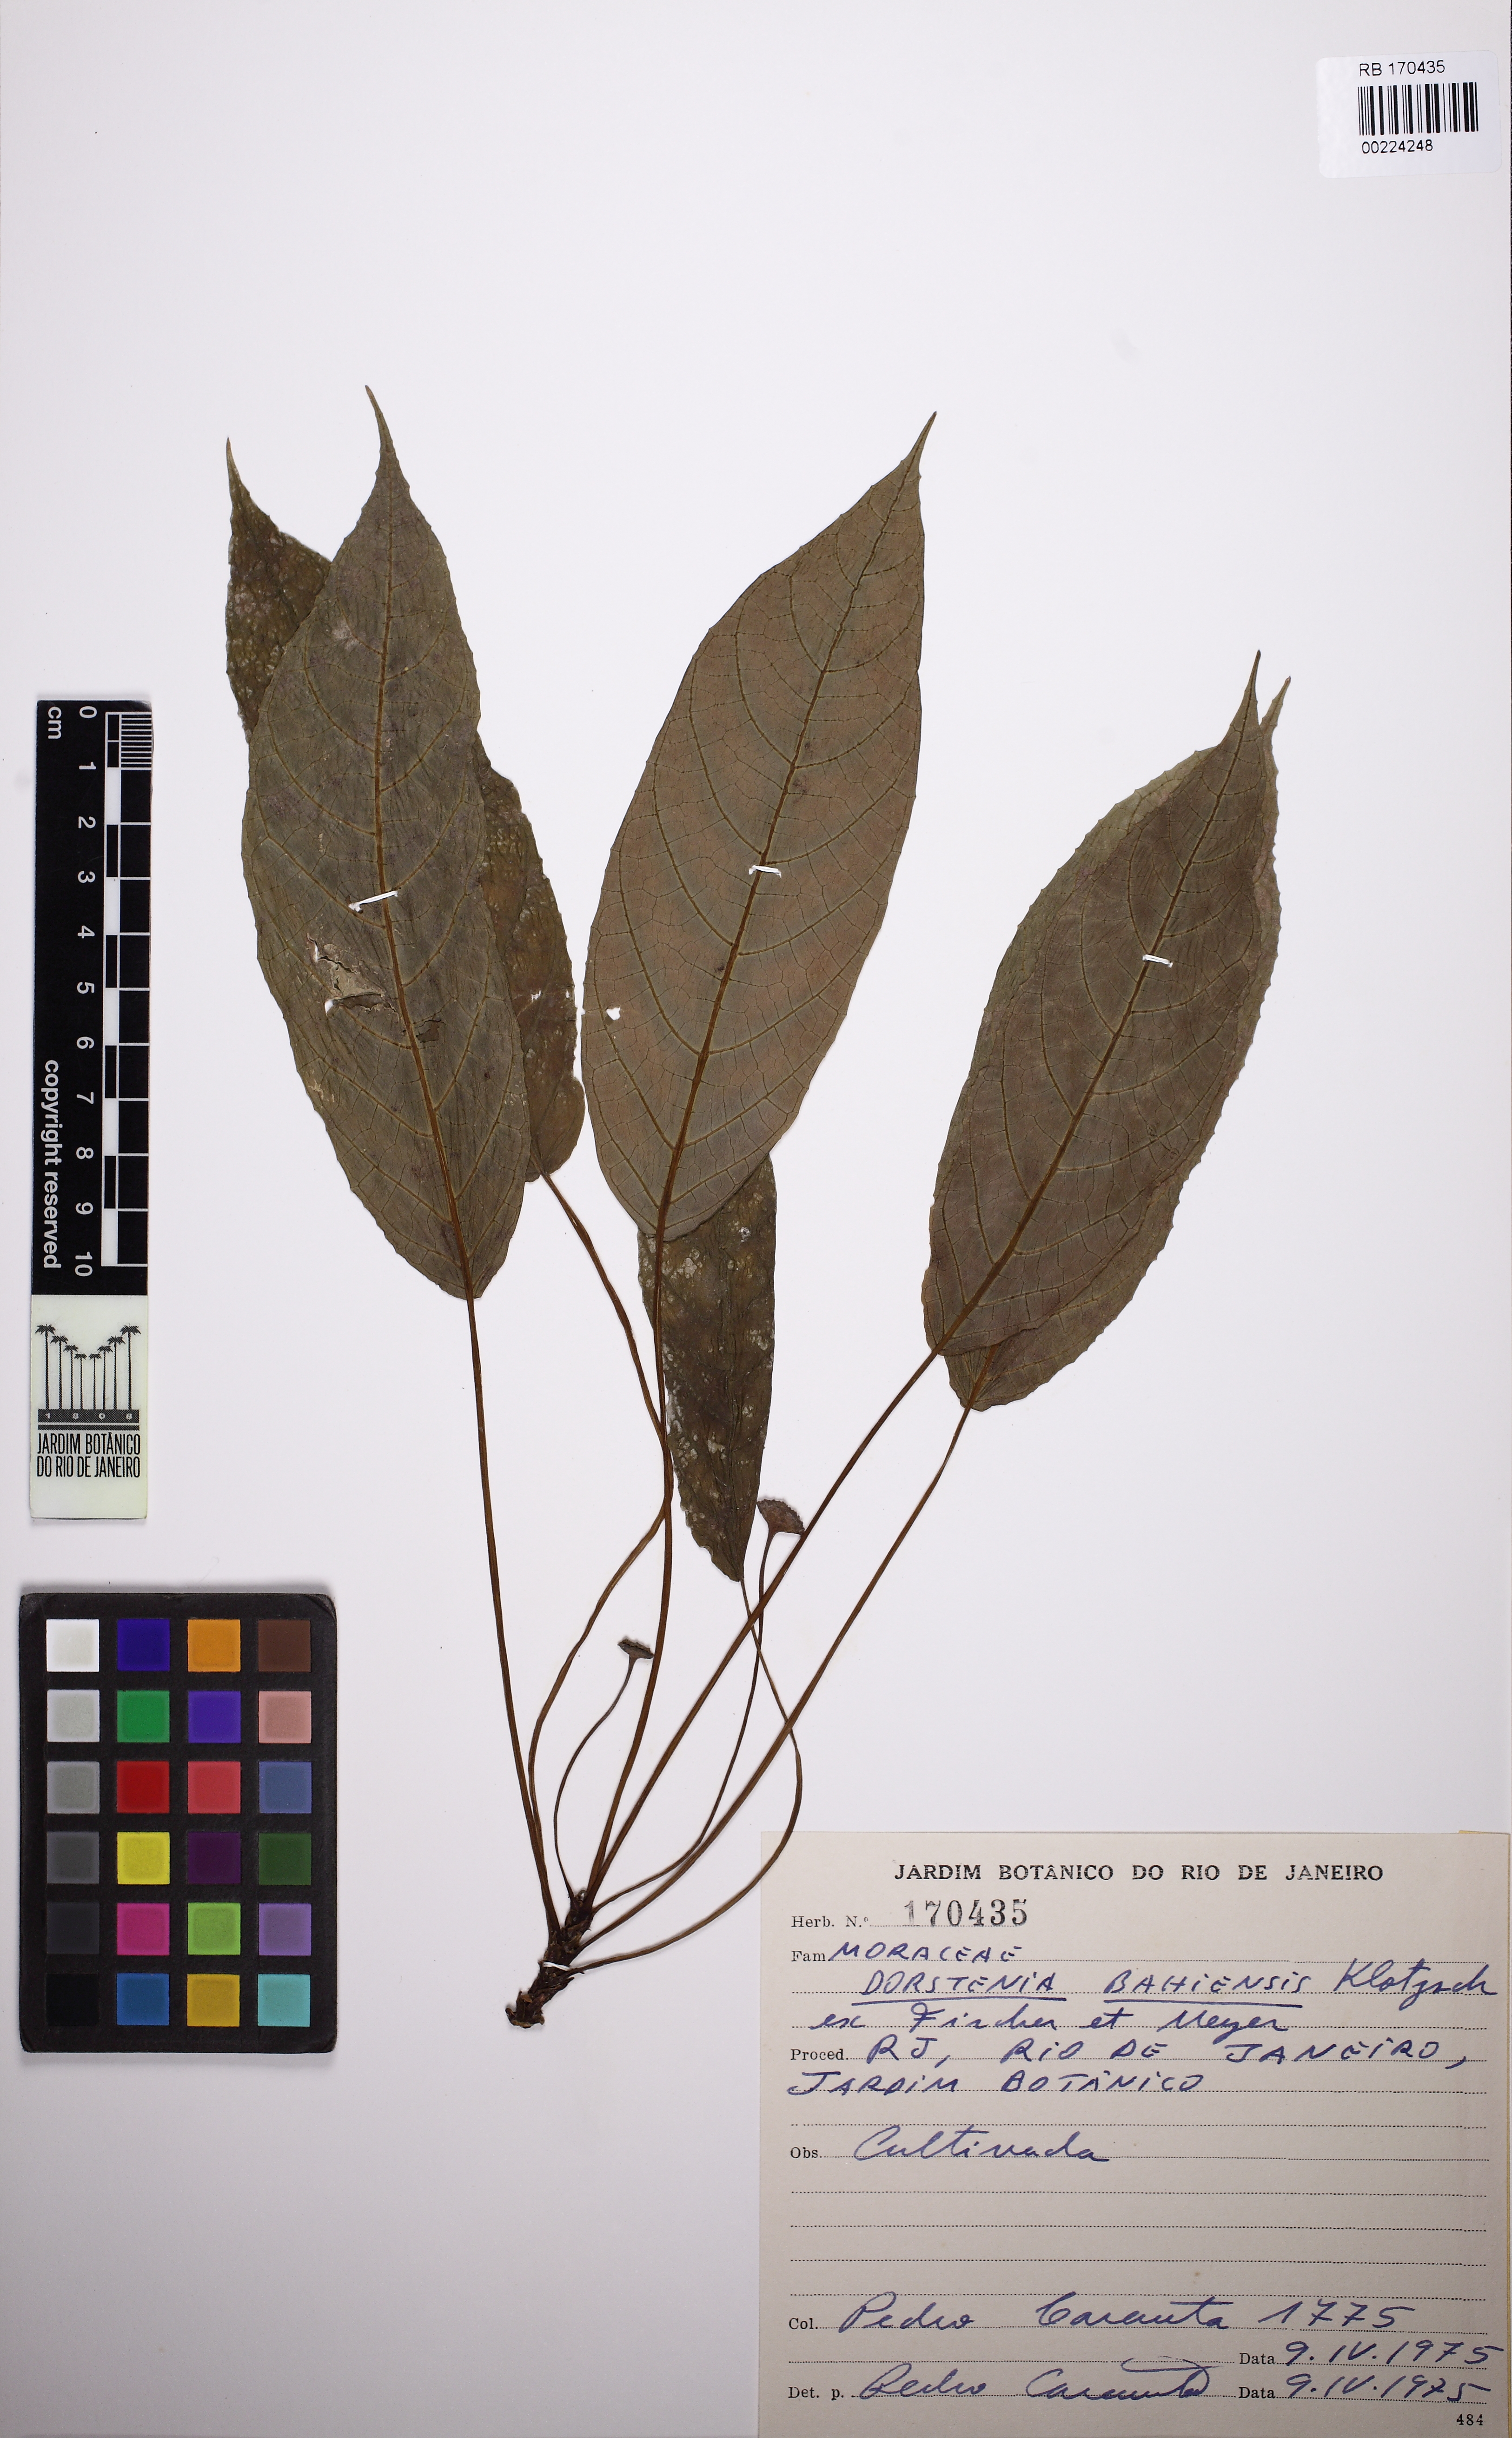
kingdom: Plantae
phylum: Tracheophyta
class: Magnoliopsida
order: Rosales
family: Moraceae
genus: Dorstenia
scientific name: Dorstenia bahiensis
